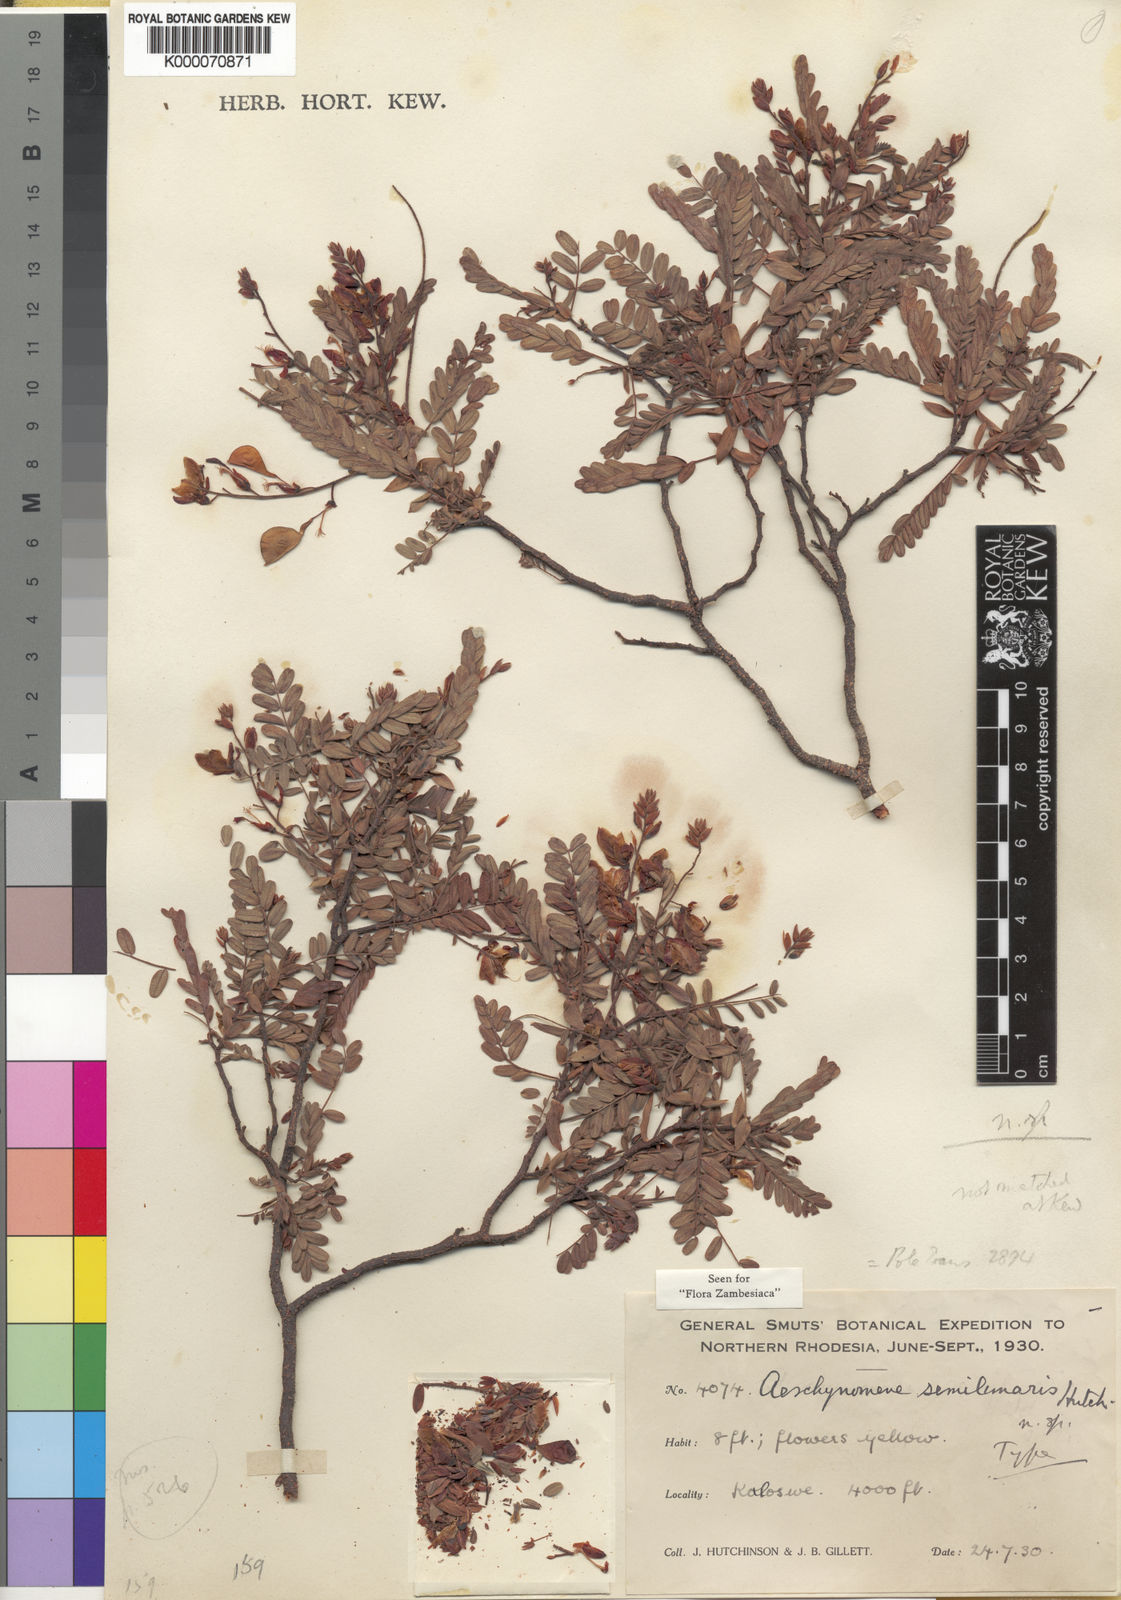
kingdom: Plantae
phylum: Tracheophyta
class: Magnoliopsida
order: Fabales
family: Fabaceae
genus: Aeschynomene
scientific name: Aeschynomene semilunaris
